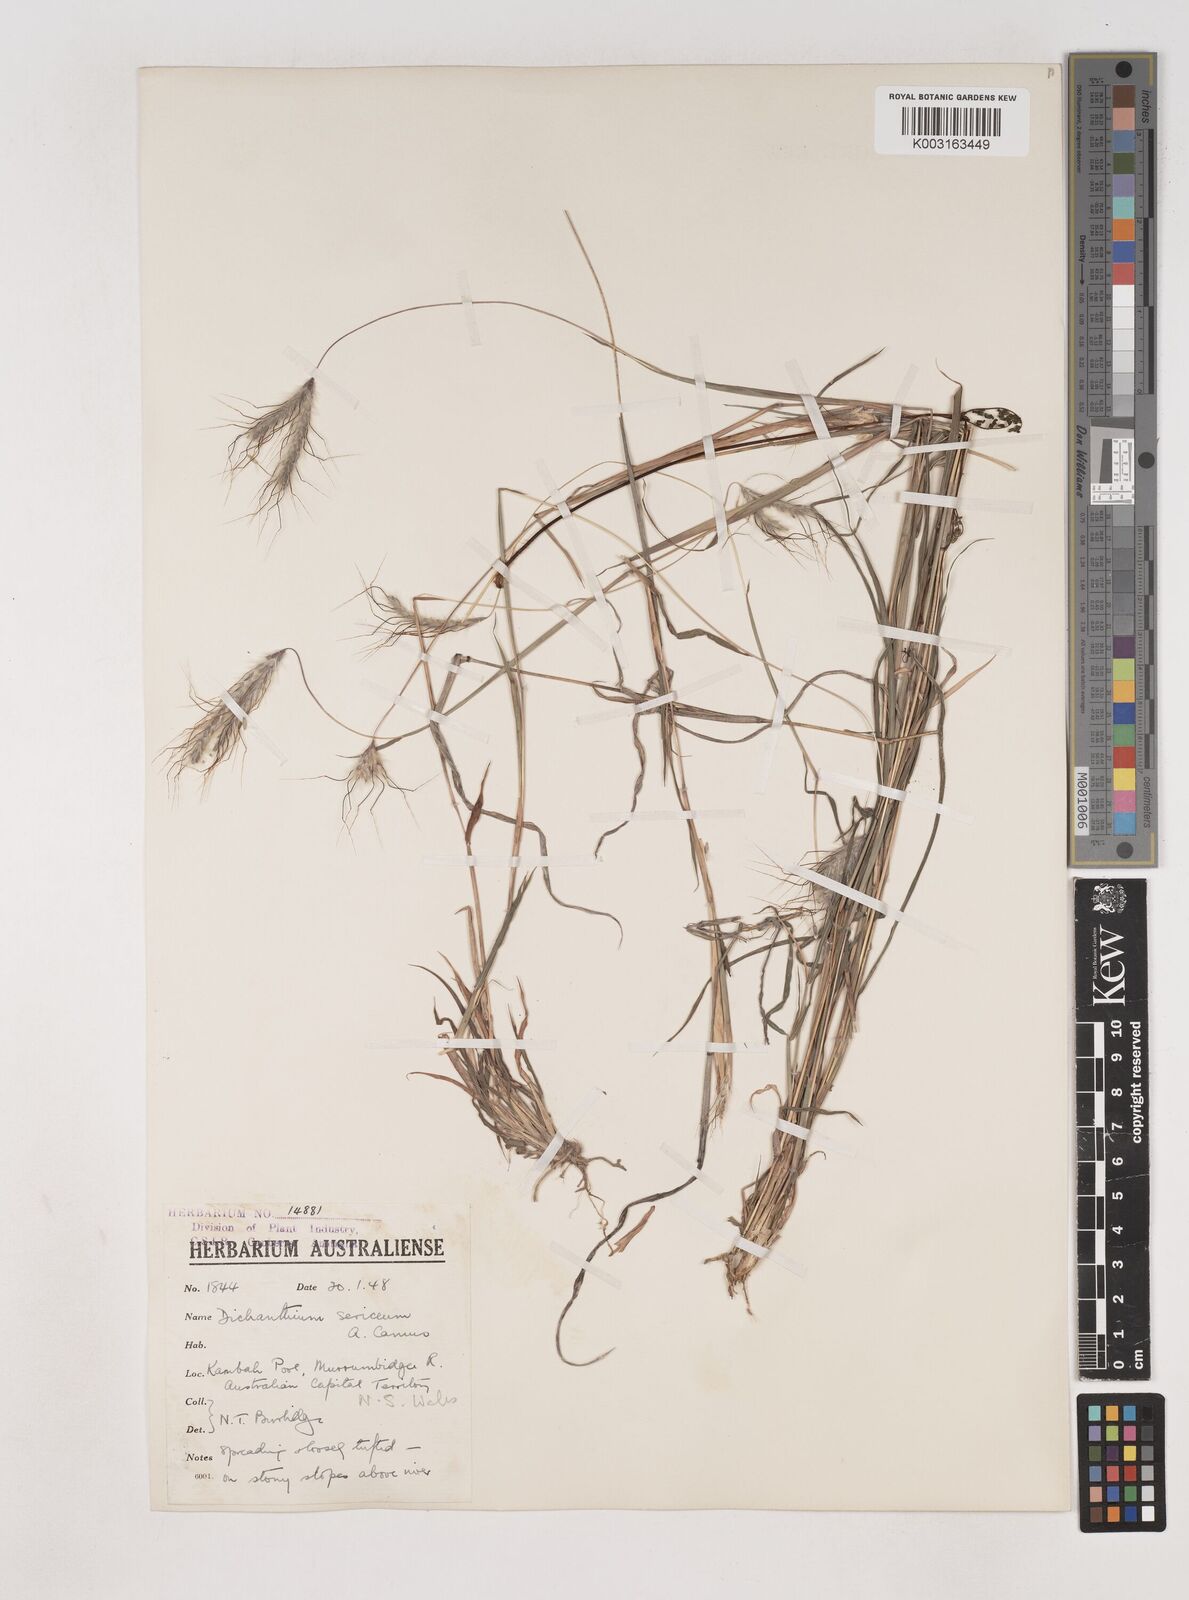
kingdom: Plantae
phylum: Tracheophyta
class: Liliopsida
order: Poales
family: Poaceae
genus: Dichanthium
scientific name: Dichanthium sericeum
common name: Silky bluestem
